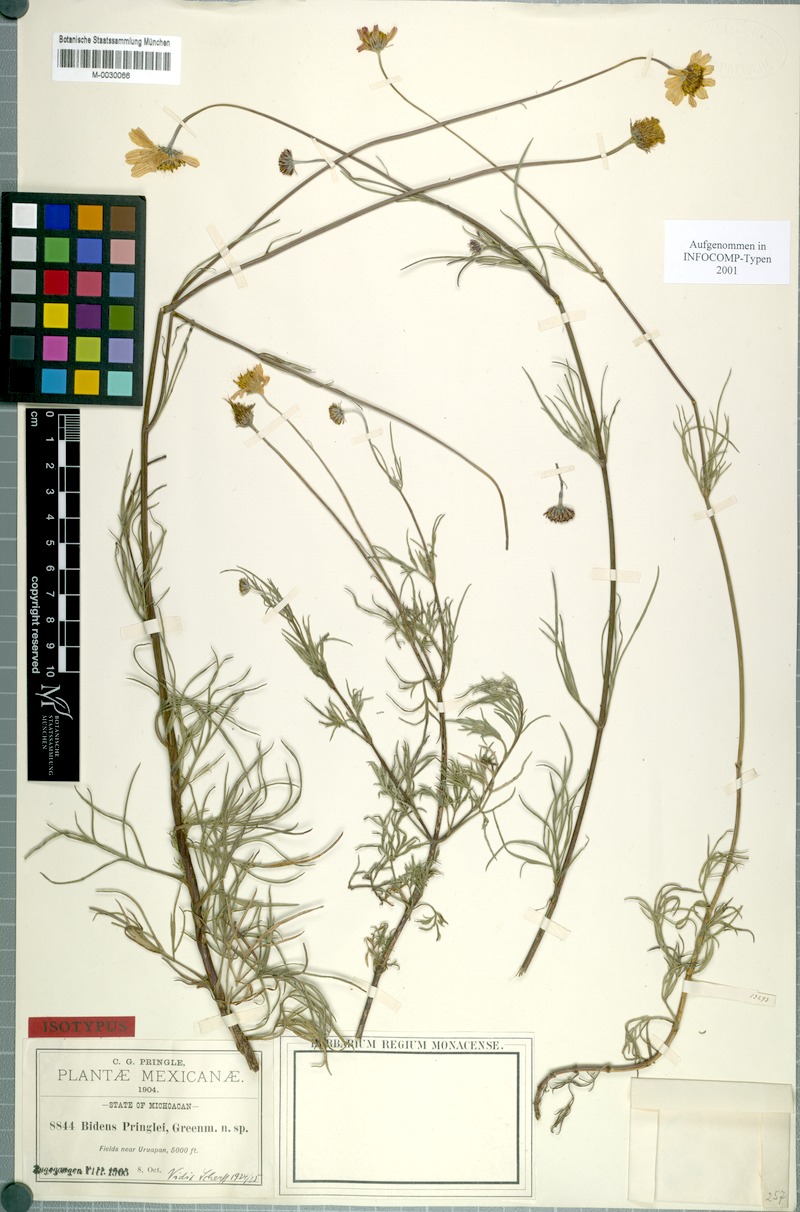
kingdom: Plantae
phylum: Tracheophyta
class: Magnoliopsida
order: Asterales
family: Asteraceae
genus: Bidens
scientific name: Bidens pringlei
